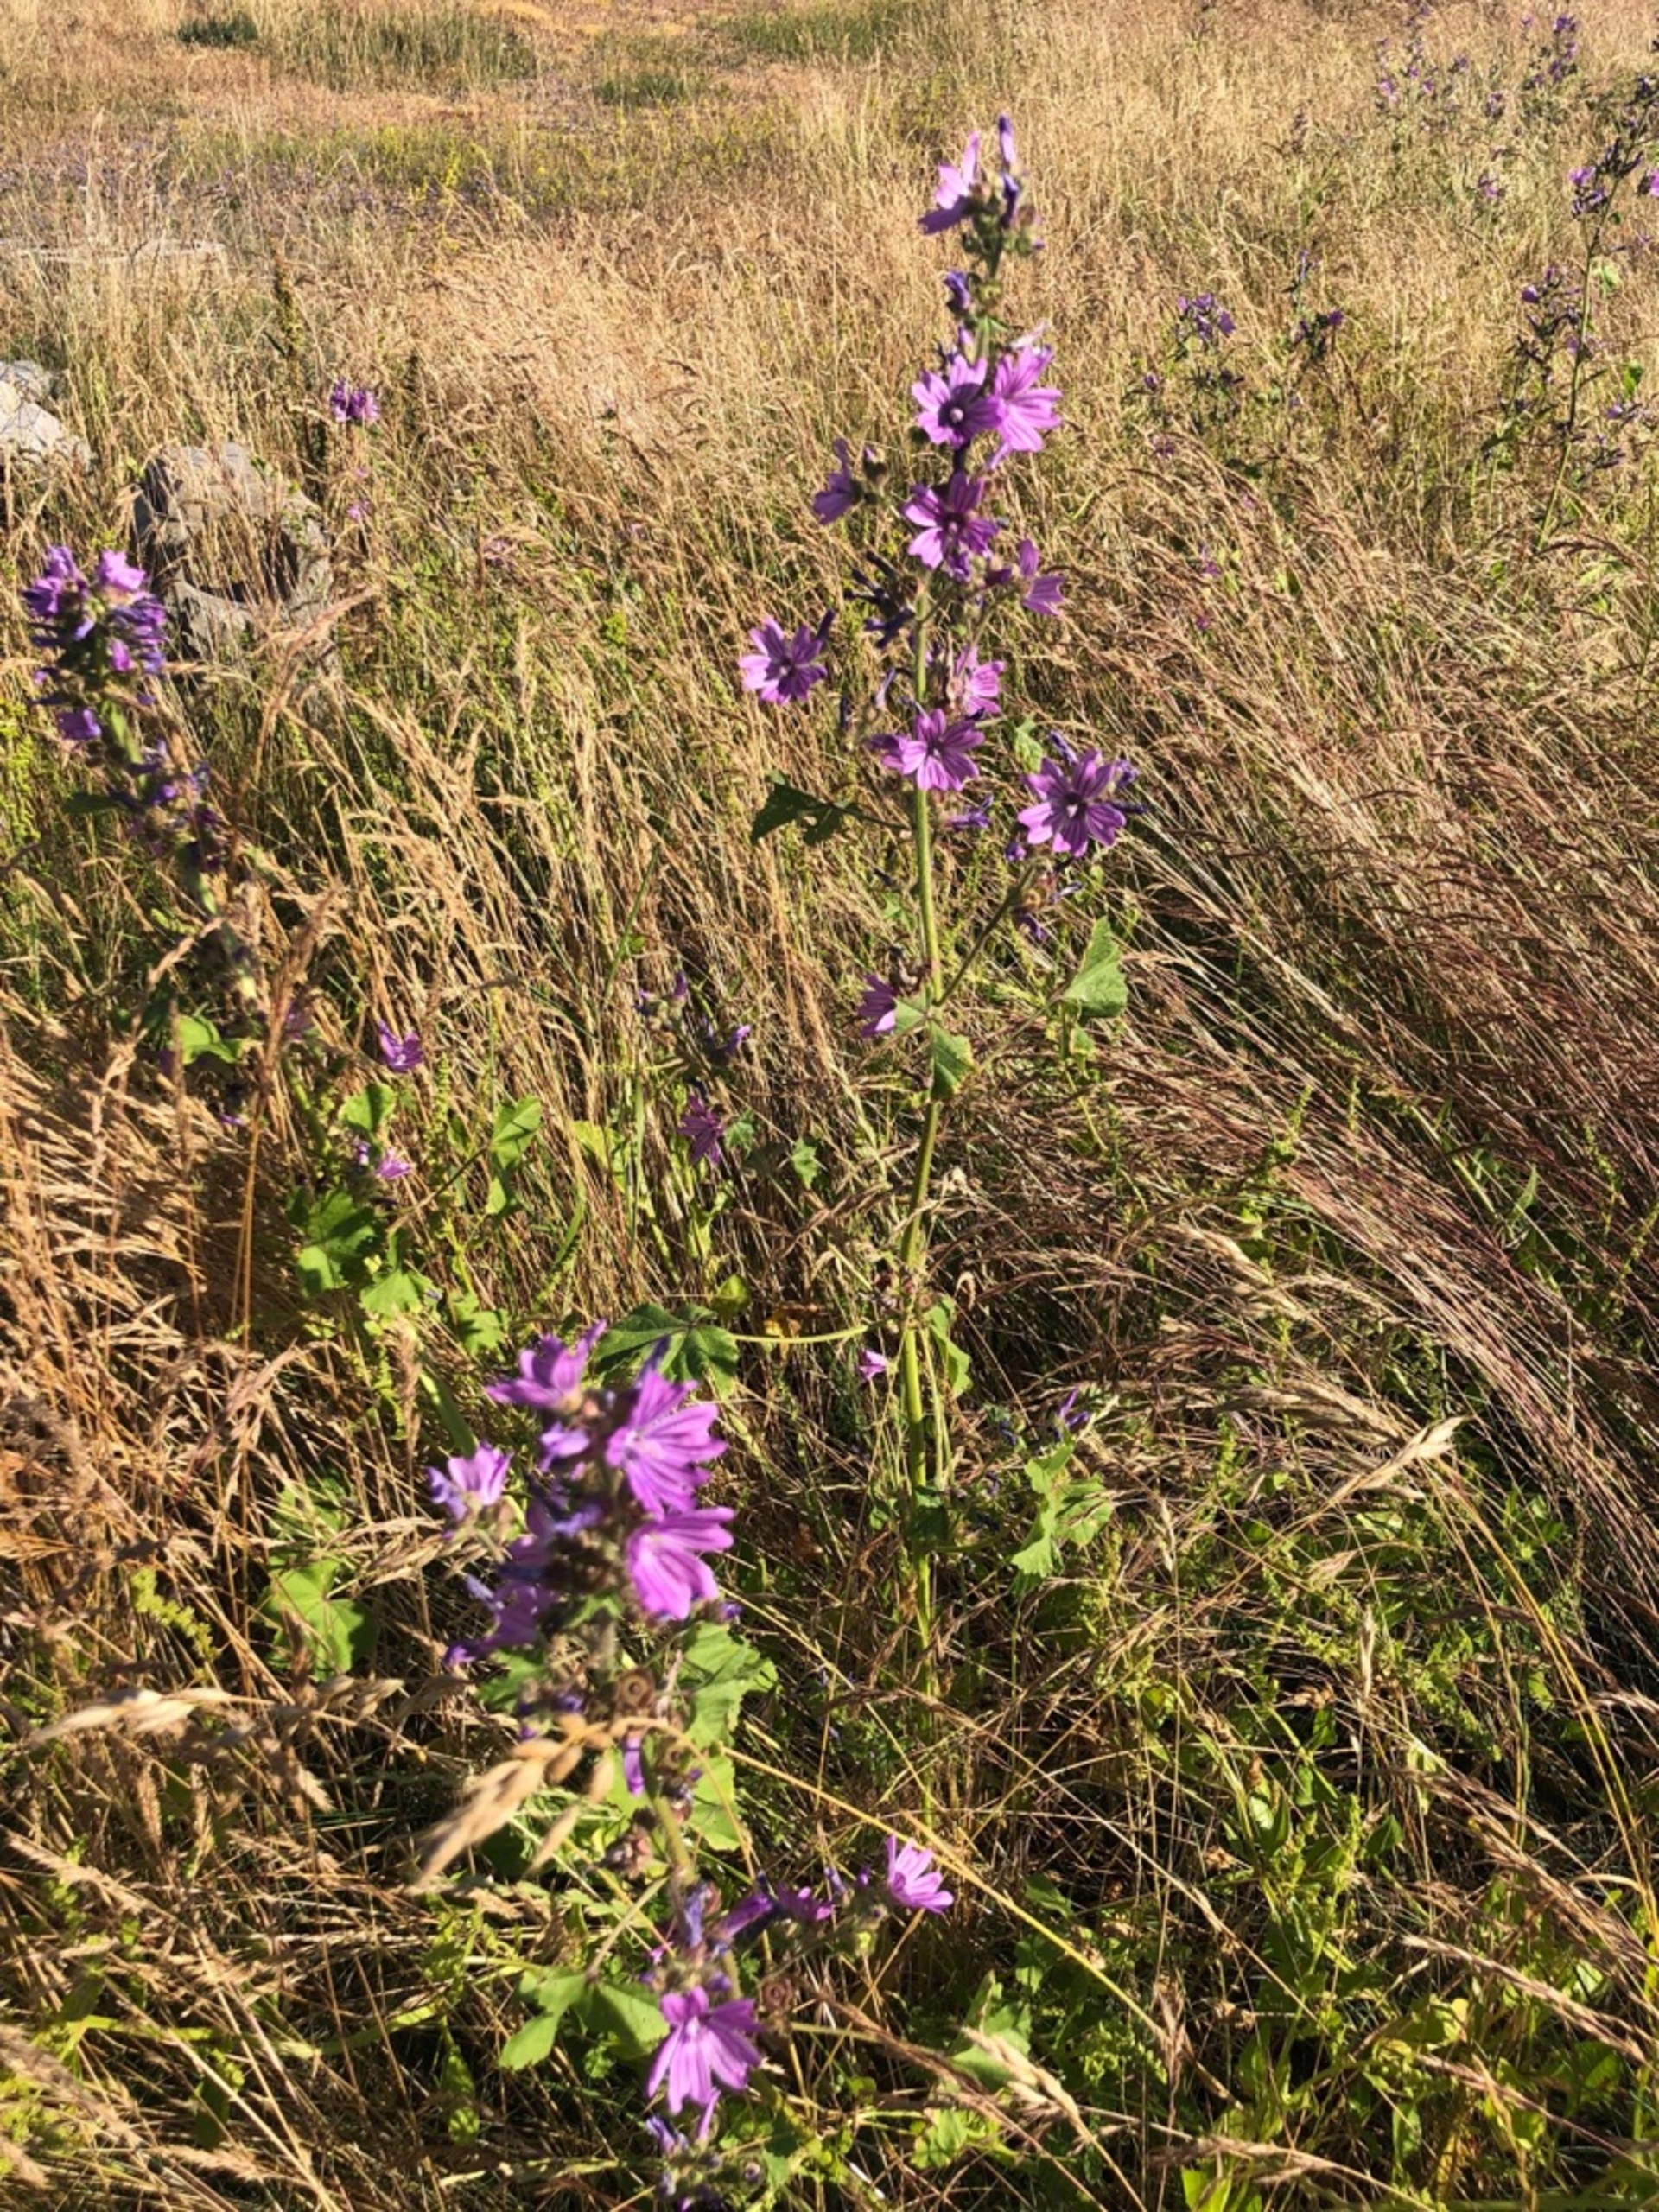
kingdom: Plantae
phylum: Tracheophyta
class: Magnoliopsida
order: Malvales
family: Malvaceae
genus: Malva
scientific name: Malva sylvestris
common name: Almindelig katost
